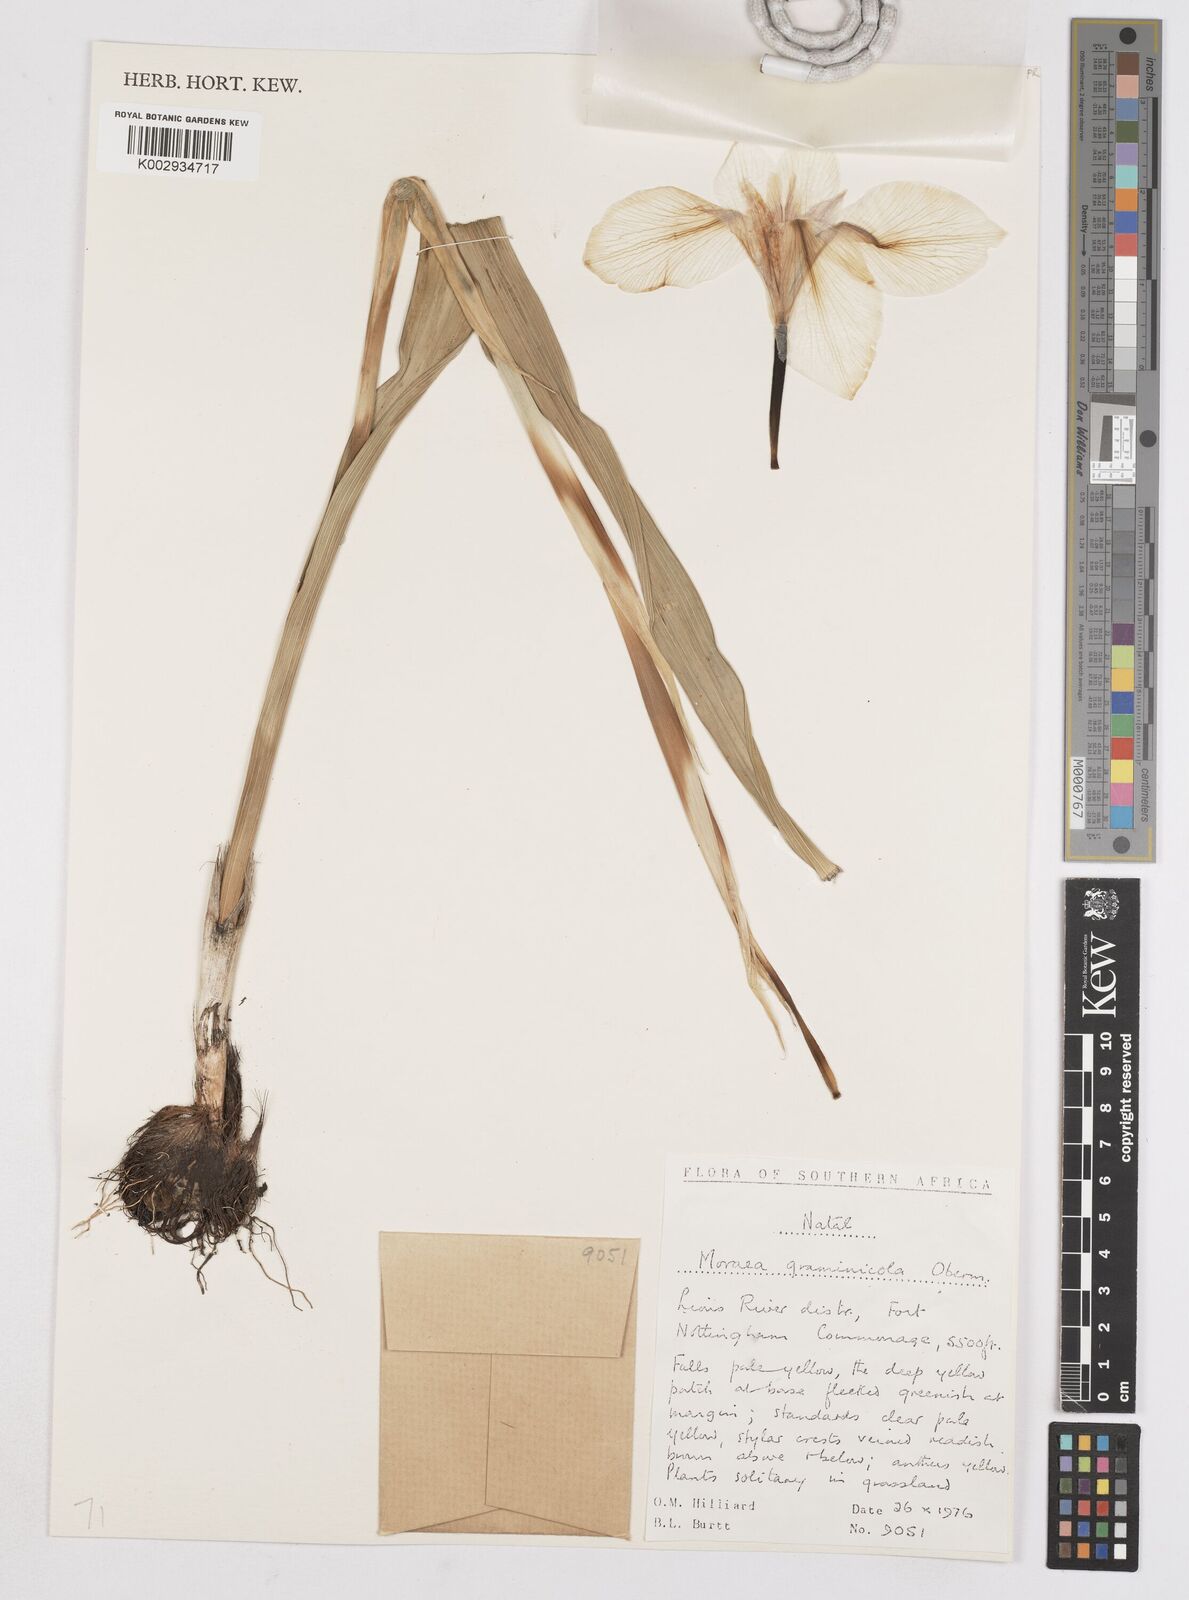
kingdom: Plantae
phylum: Tracheophyta
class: Liliopsida
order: Asparagales
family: Iridaceae
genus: Moraea
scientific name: Moraea graminicola
